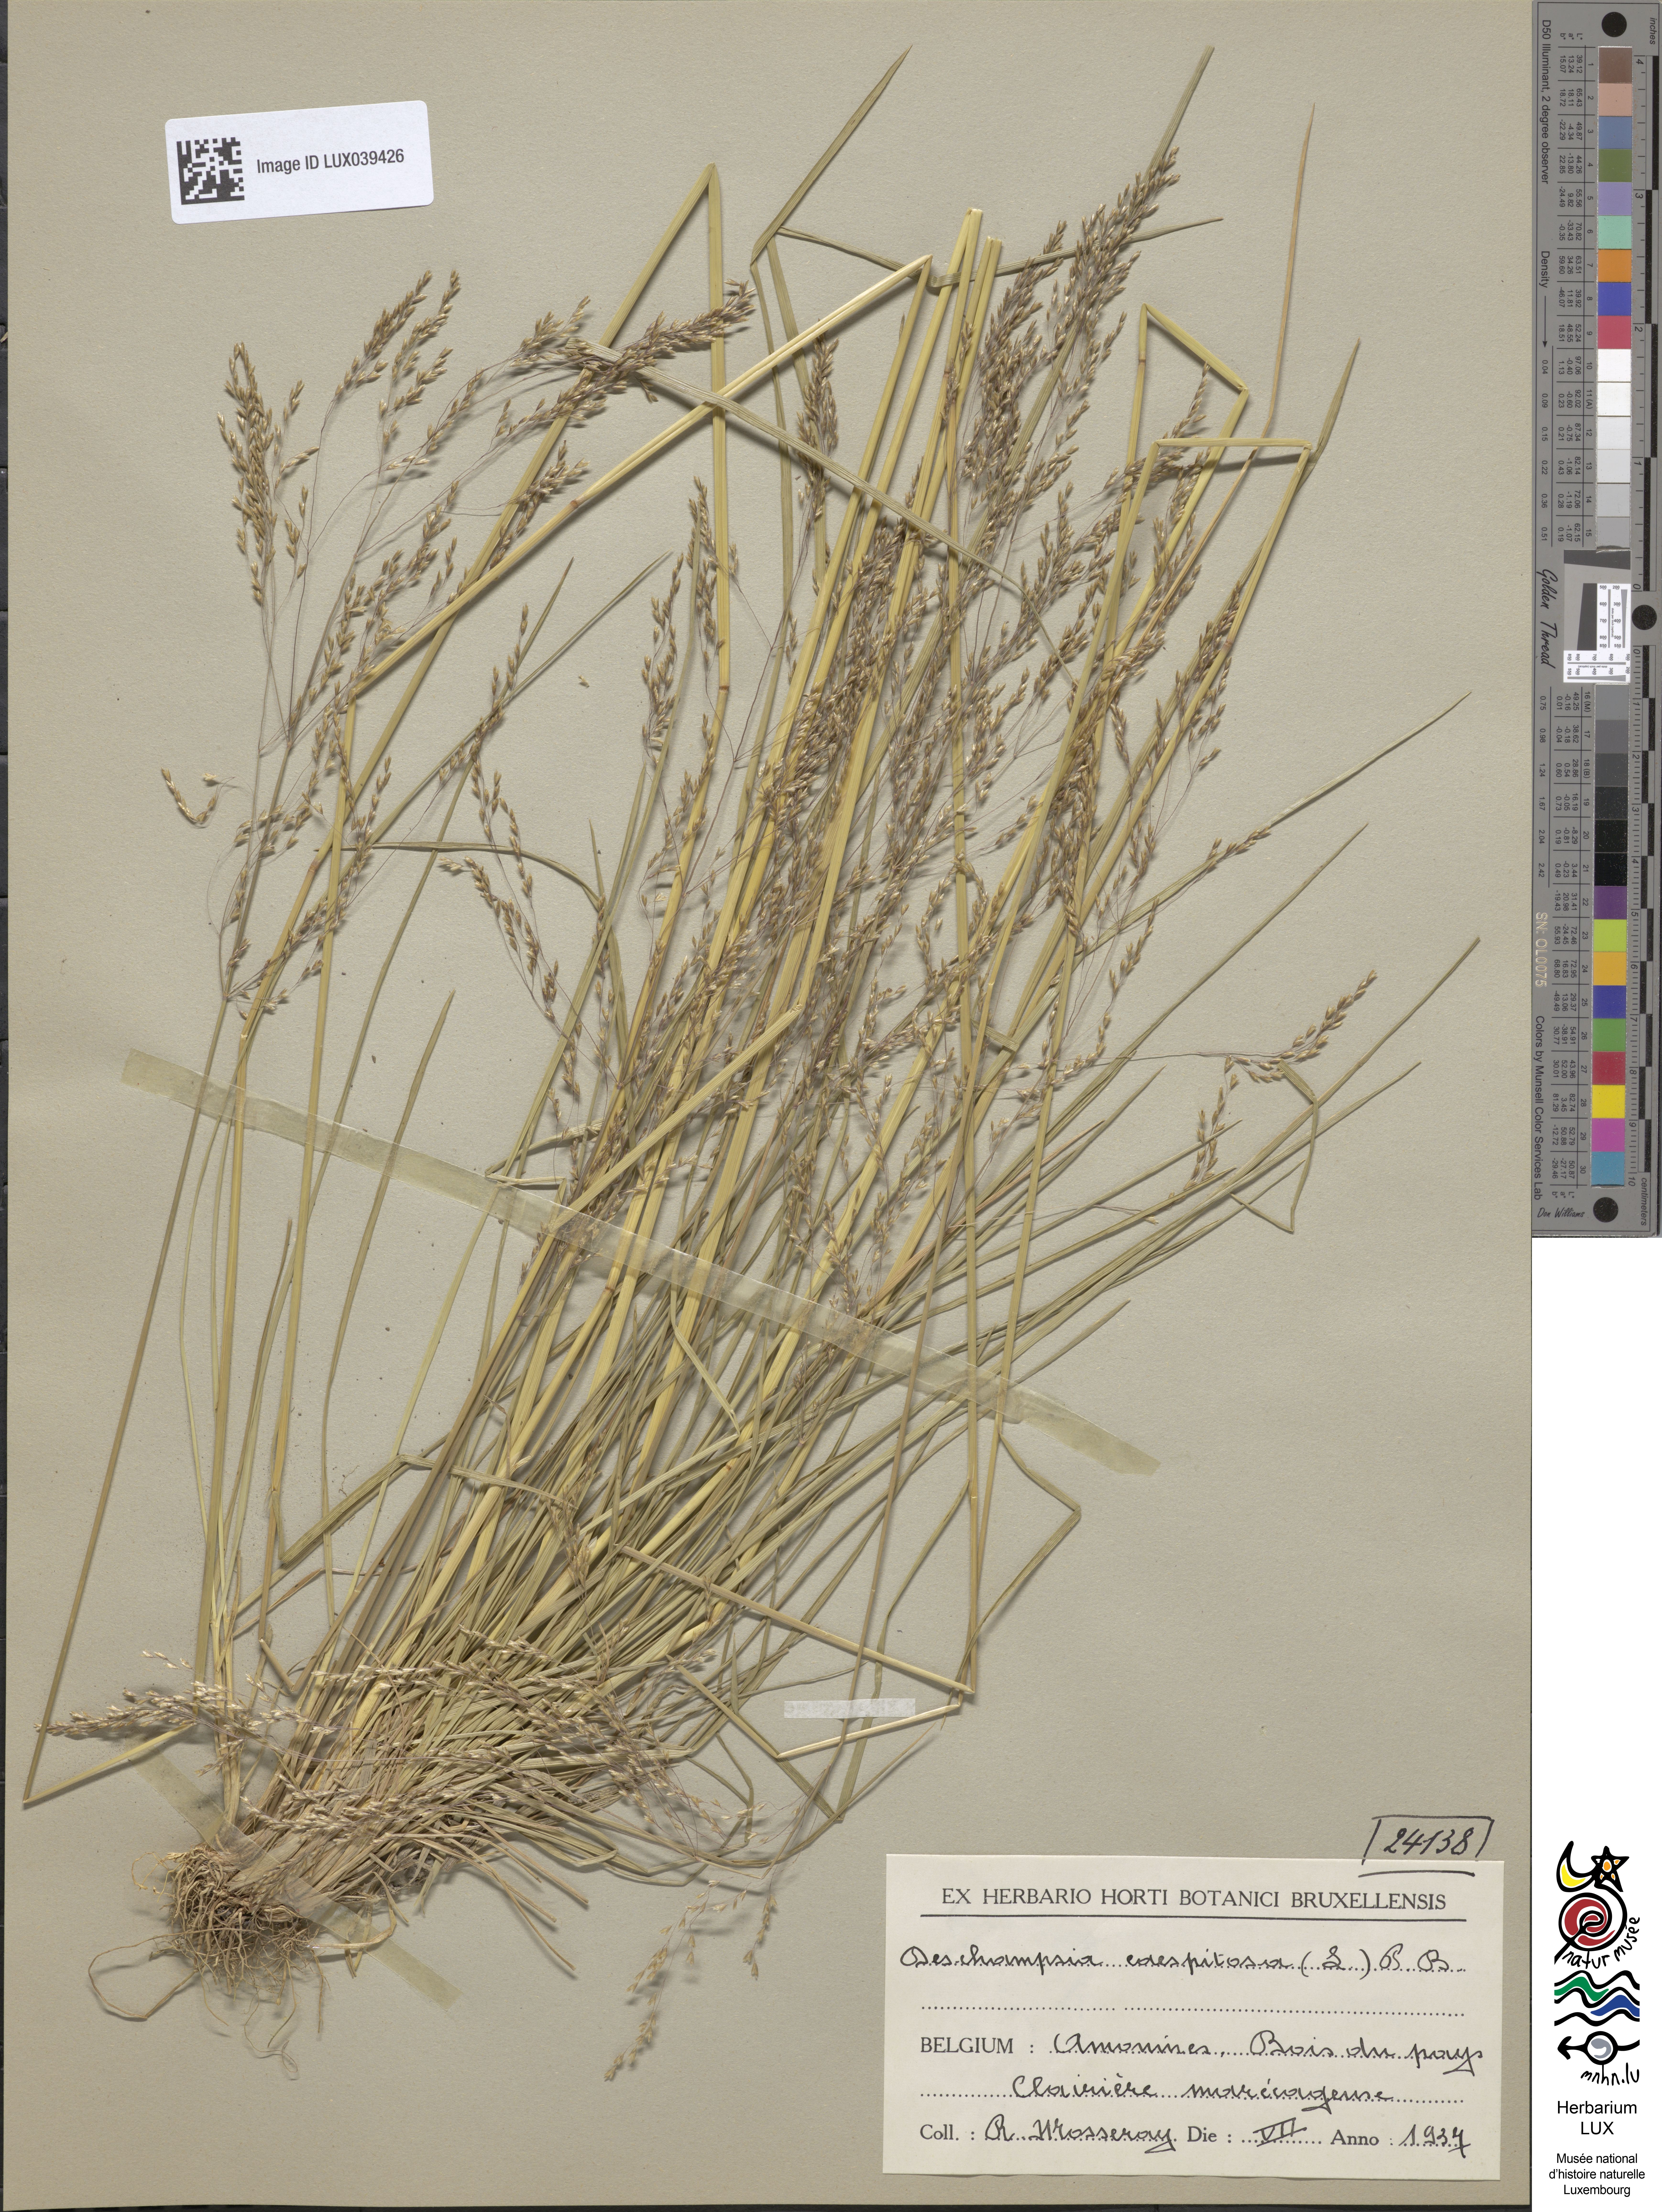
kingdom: Plantae
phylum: Tracheophyta
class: Liliopsida
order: Poales
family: Poaceae
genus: Deschampsia
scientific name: Deschampsia cespitosa
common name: Tufted hair-grass
